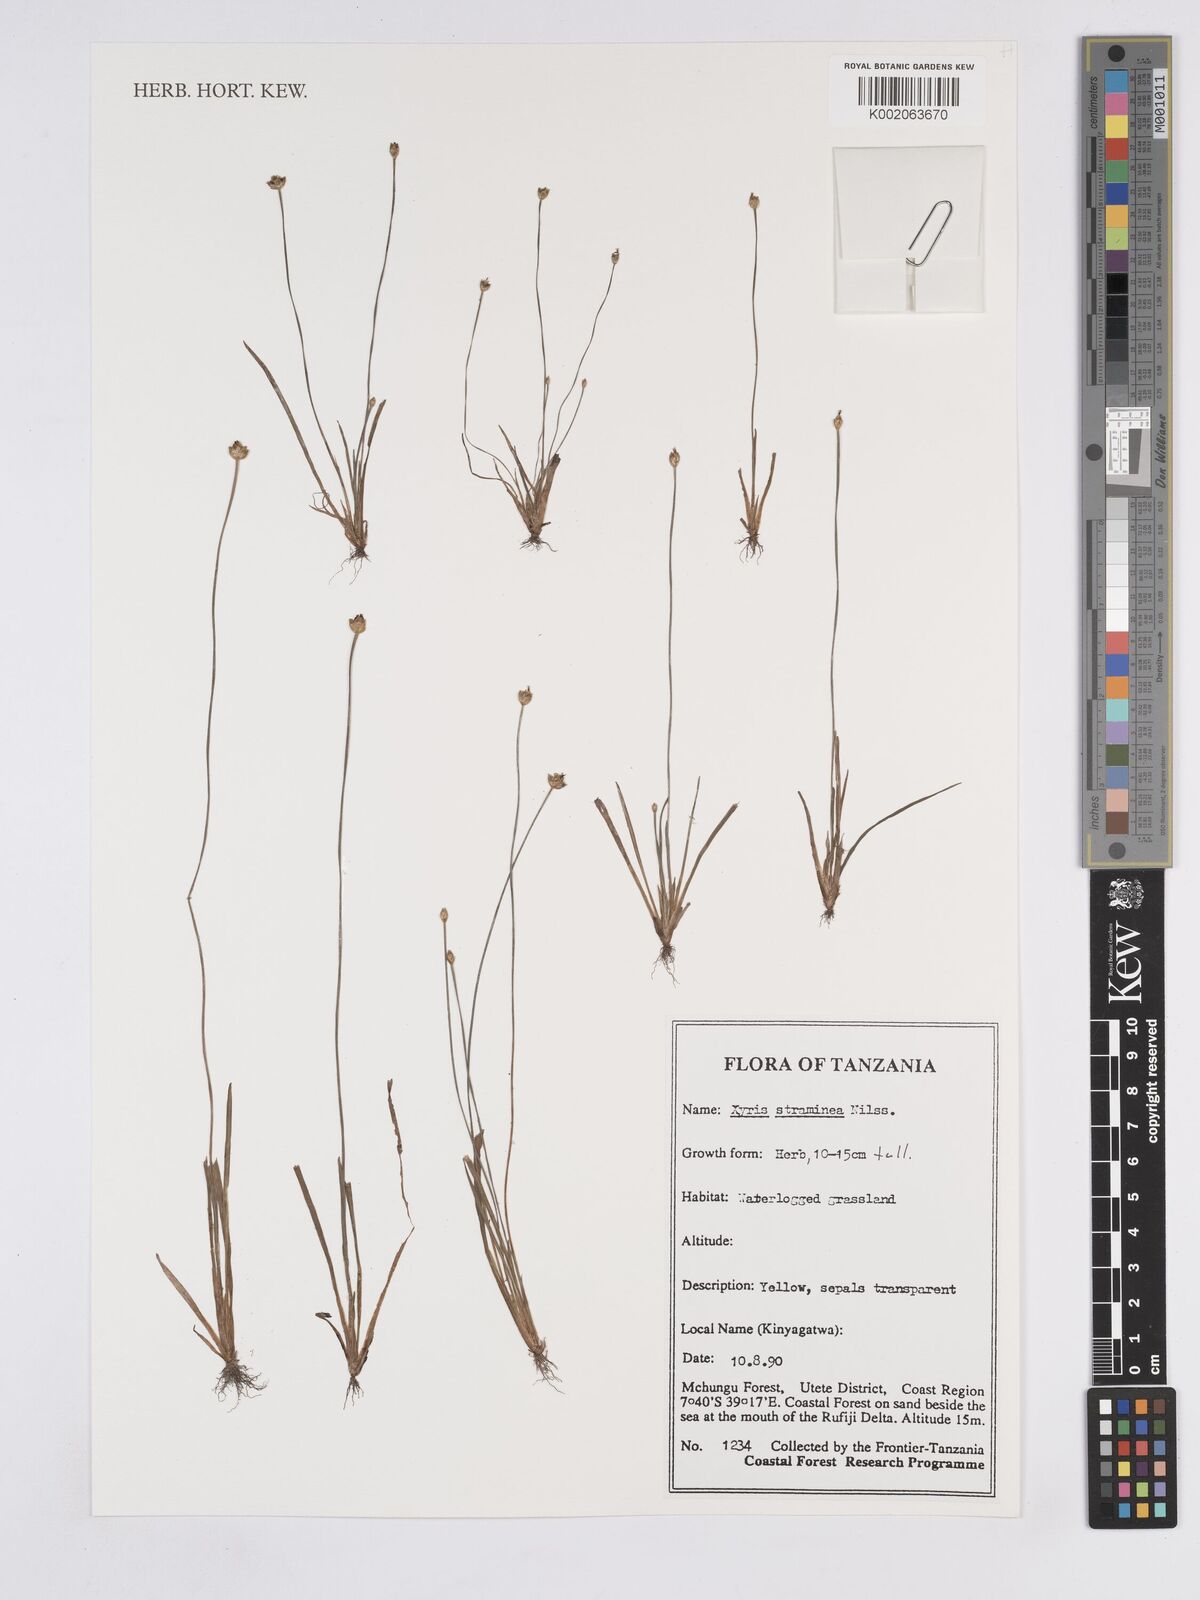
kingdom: Plantae
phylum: Tracheophyta
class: Liliopsida
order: Poales
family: Xyridaceae
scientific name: Xyridaceae
